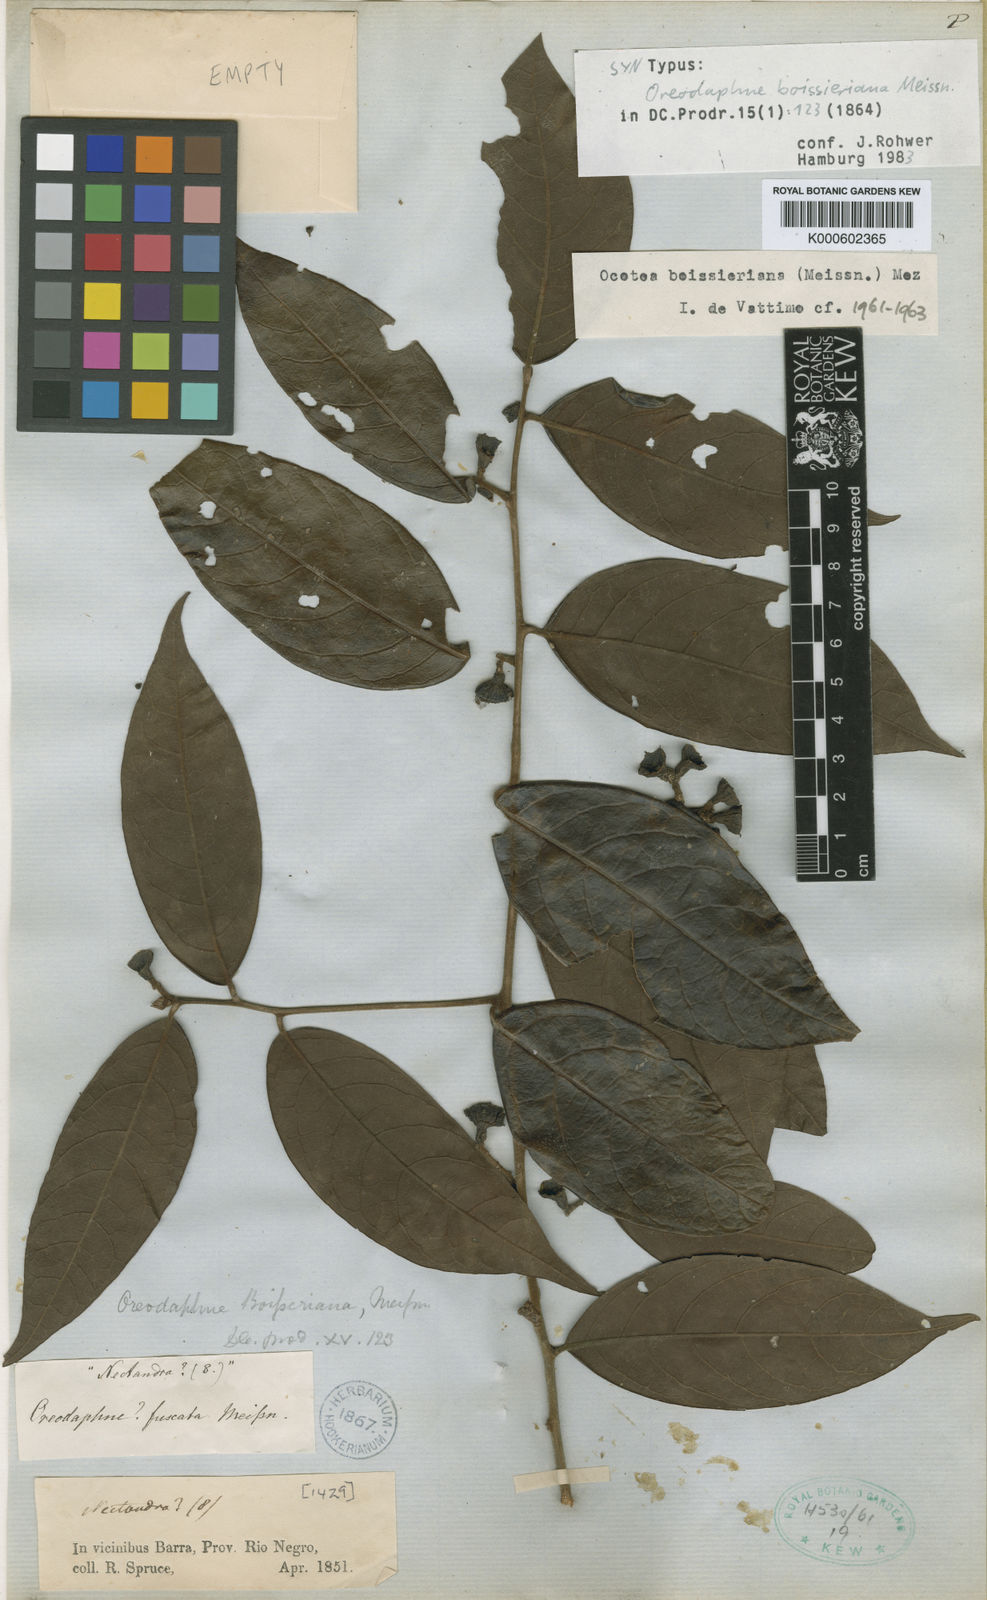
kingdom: Plantae
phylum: Tracheophyta
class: Magnoliopsida
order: Laurales
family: Lauraceae
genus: Ocotea
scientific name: Ocotea boissieriana
